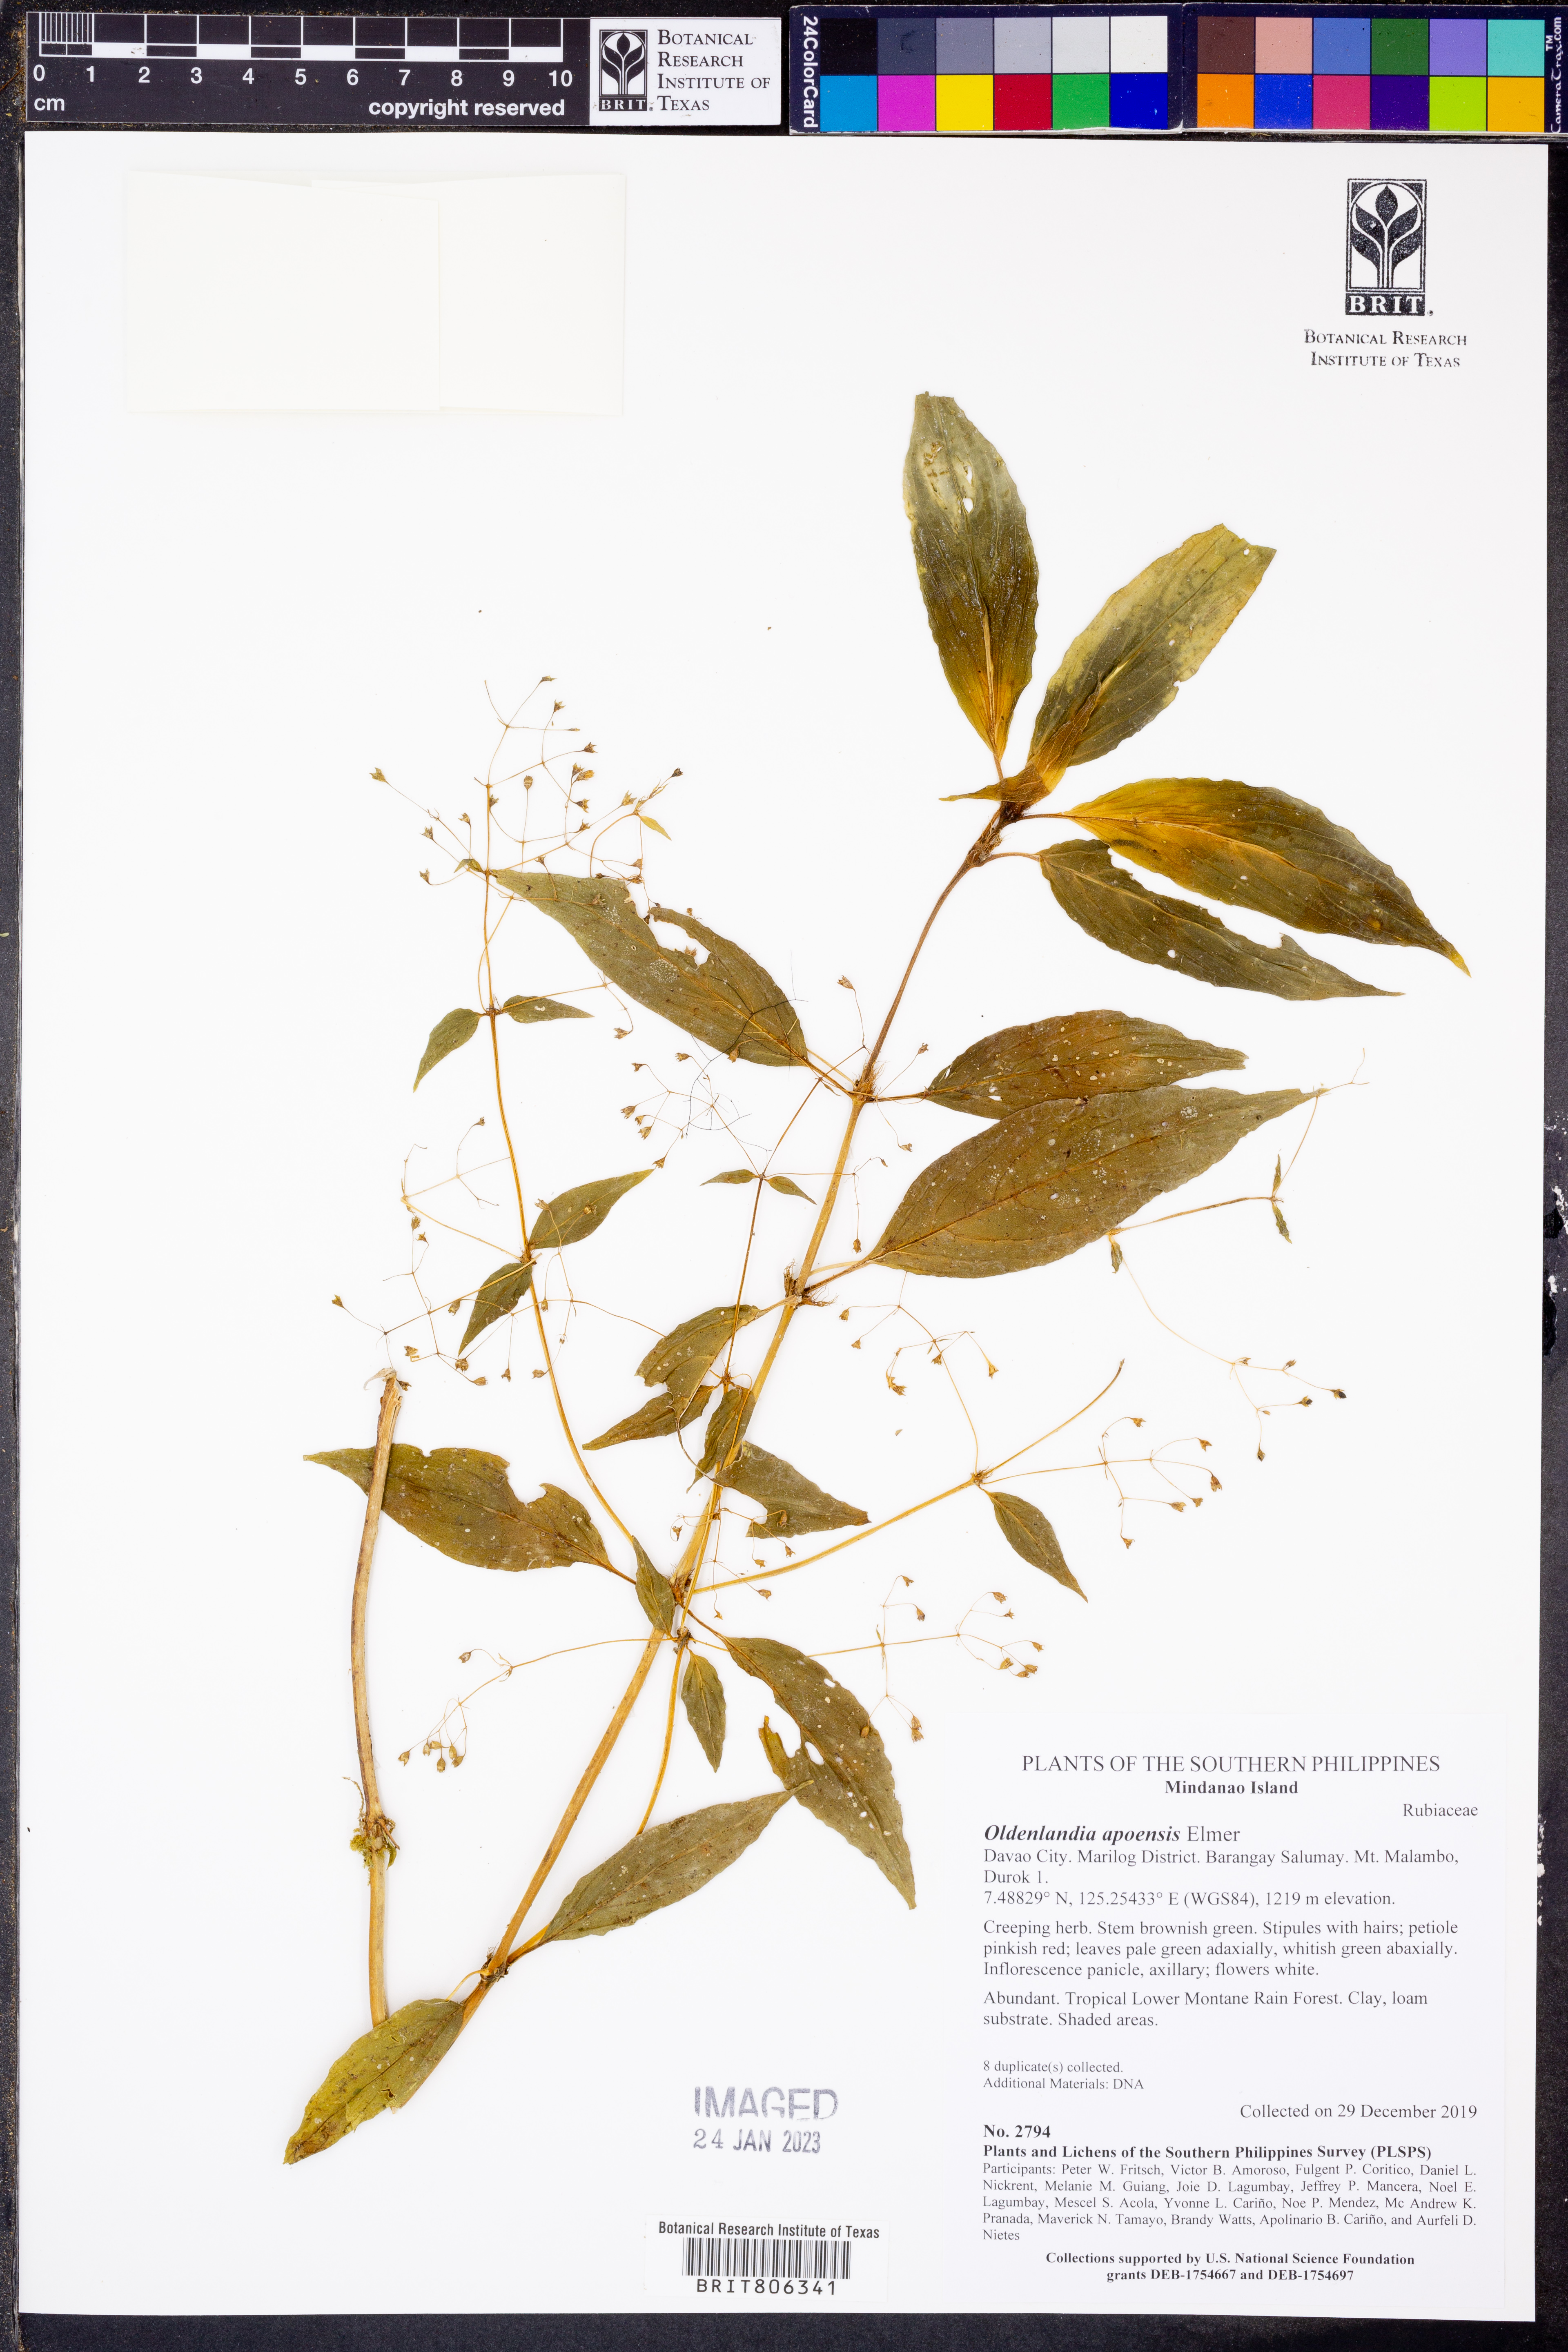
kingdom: Plantae
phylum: Tracheophyta
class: Magnoliopsida
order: Gentianales
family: Rubiaceae
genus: Oldenlandia
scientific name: Oldenlandia apoensis
